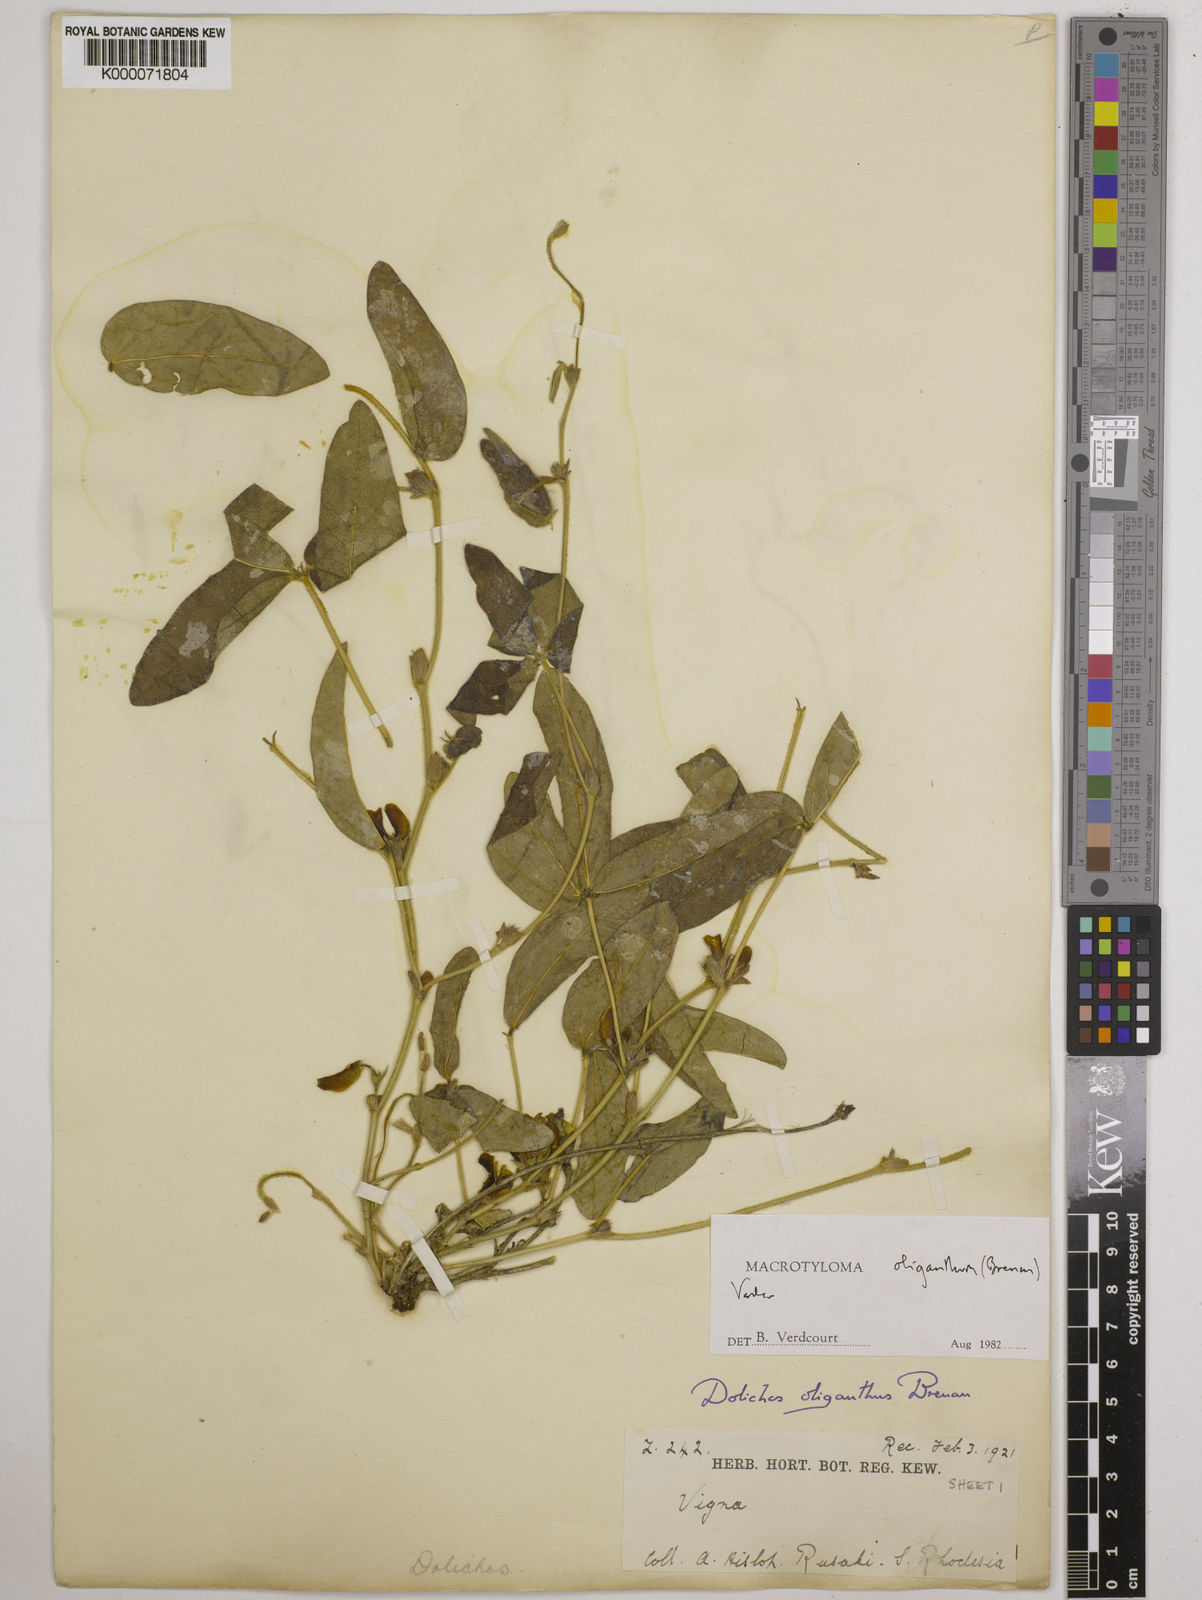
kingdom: Plantae
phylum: Tracheophyta
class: Magnoliopsida
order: Fabales
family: Fabaceae
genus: Macrotyloma
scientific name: Macrotyloma oliganthum
